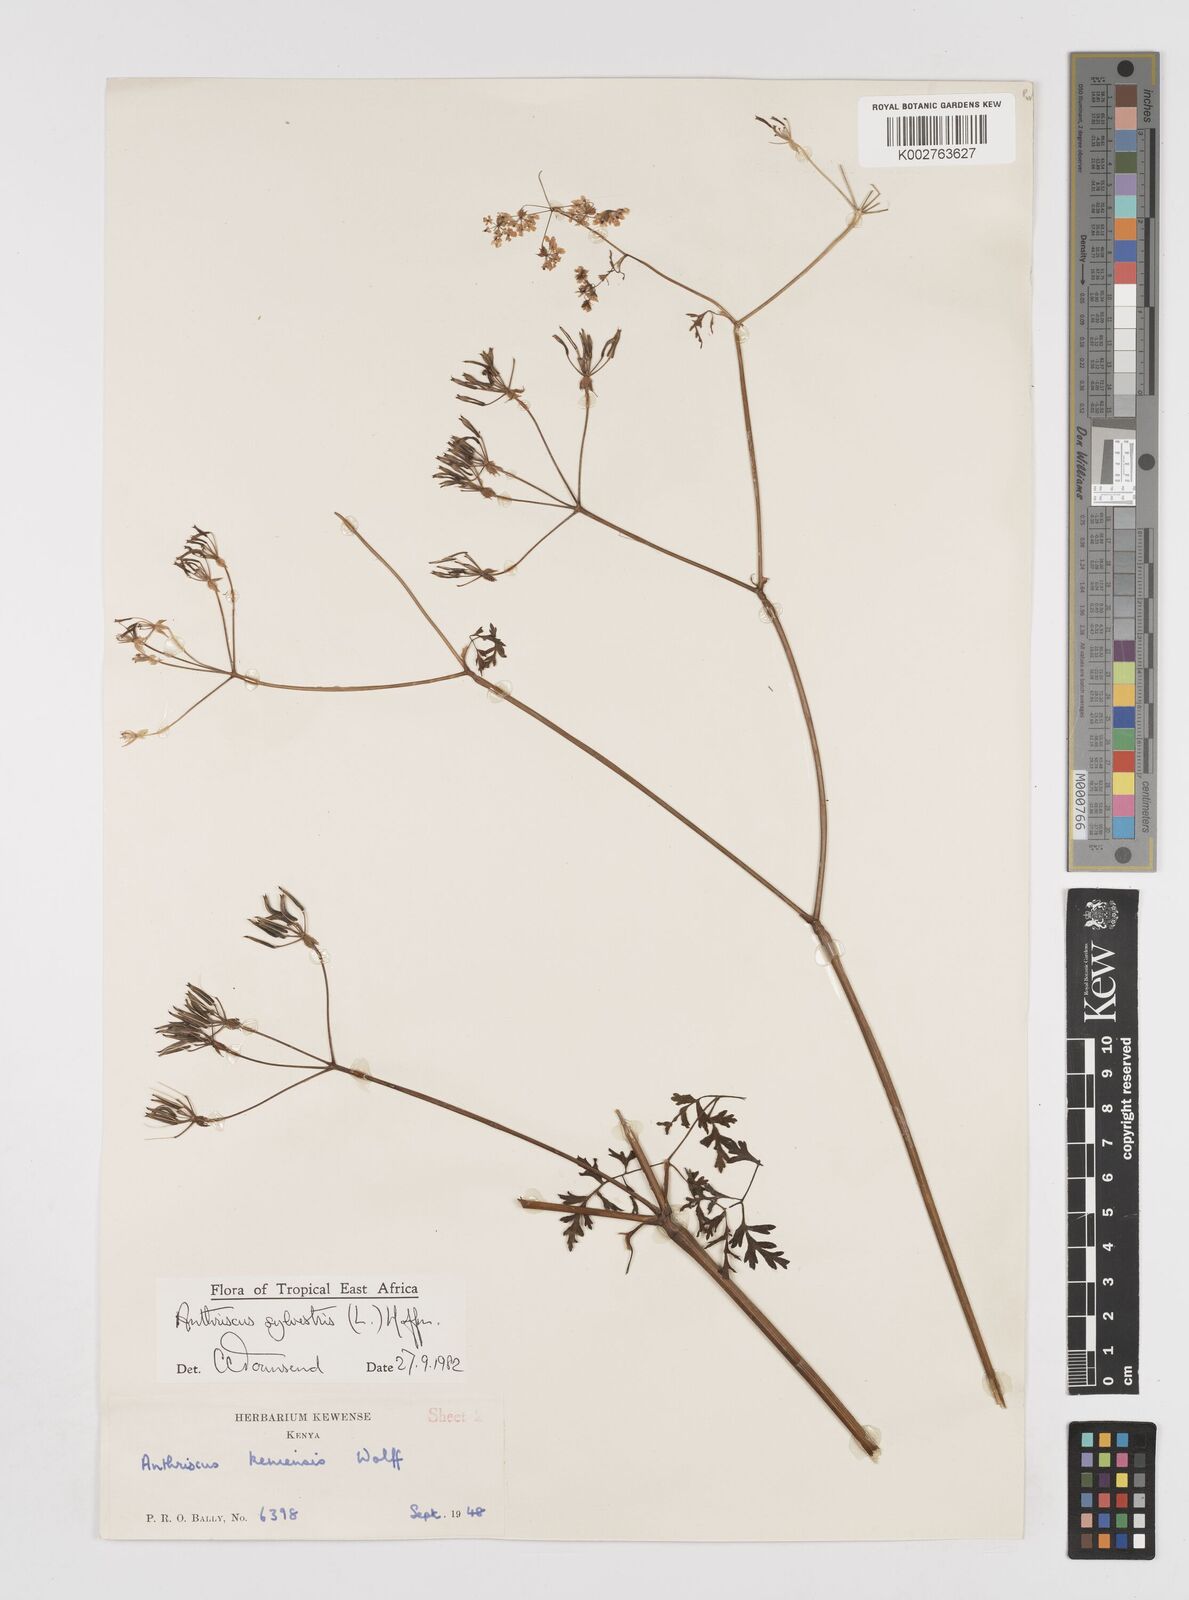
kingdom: Plantae
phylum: Tracheophyta
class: Magnoliopsida
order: Apiales
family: Apiaceae
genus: Anthriscus
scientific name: Anthriscus sylvestris
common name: Cow parsley
